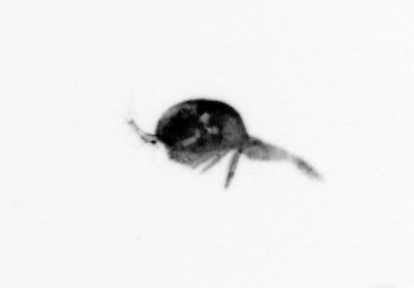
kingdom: Animalia
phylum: Arthropoda
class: Copepoda
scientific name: Copepoda
